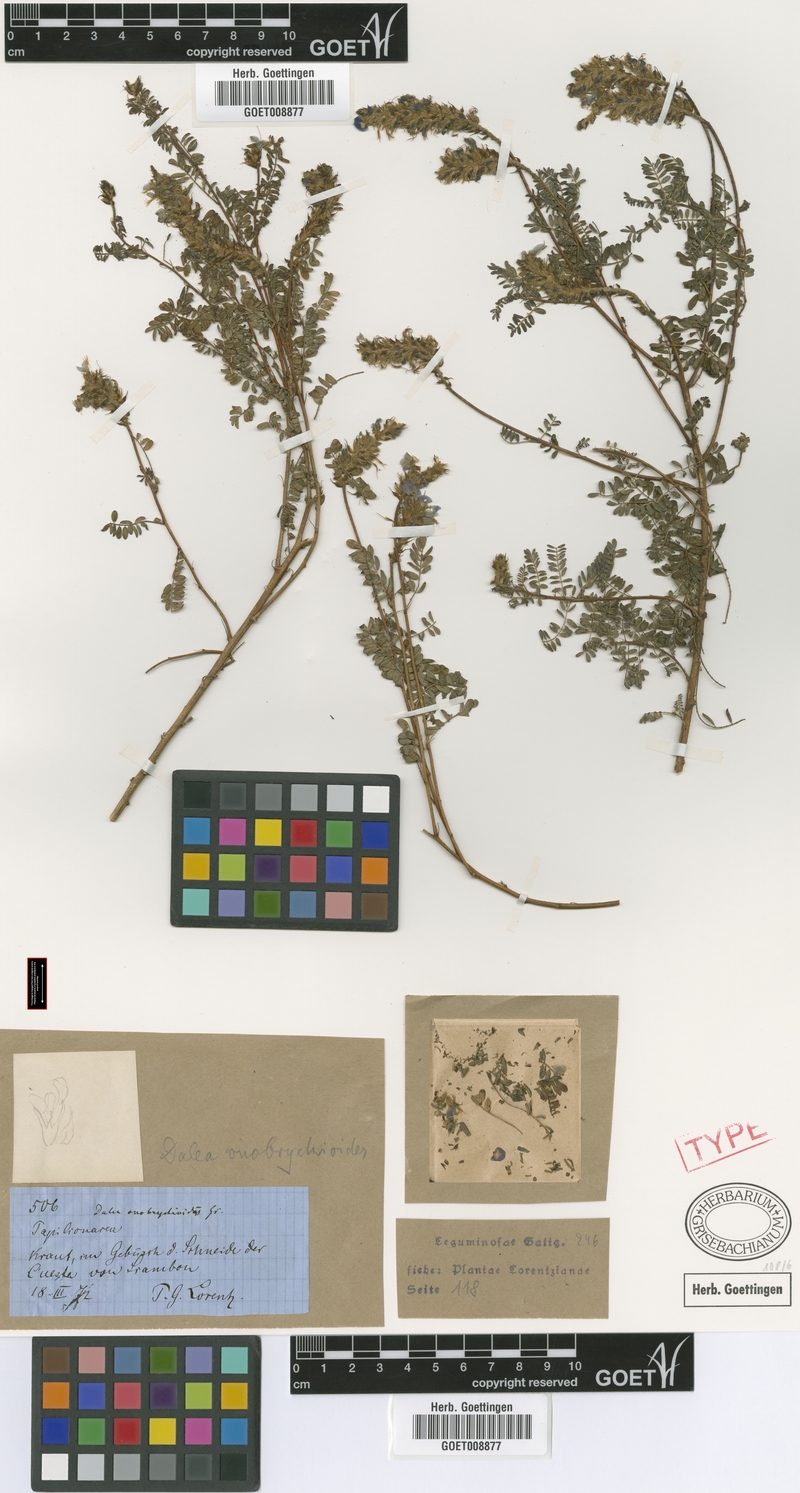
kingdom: Plantae
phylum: Tracheophyta
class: Magnoliopsida
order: Fabales
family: Fabaceae
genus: Dalea
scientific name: Dalea elegans
